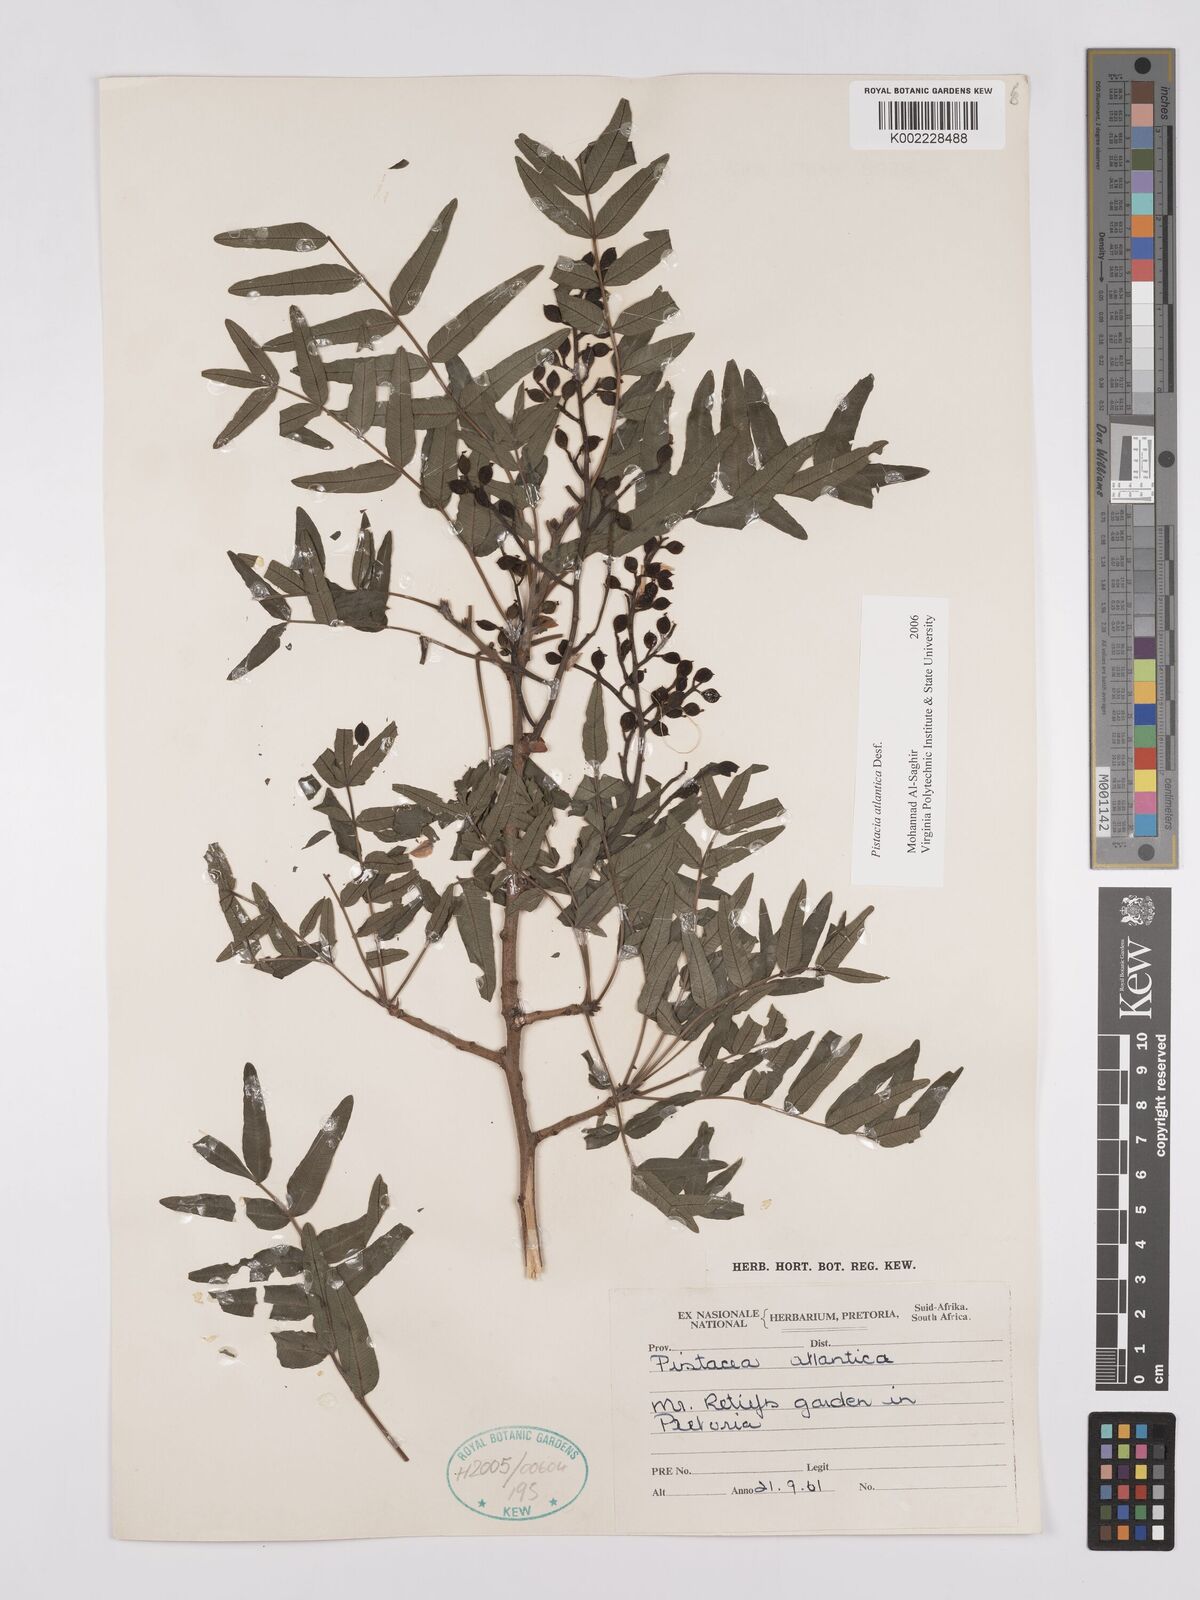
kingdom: Plantae
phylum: Tracheophyta
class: Magnoliopsida
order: Sapindales
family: Anacardiaceae
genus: Pistacia
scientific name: Pistacia atlantica
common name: Mt. atlas mastic tree
